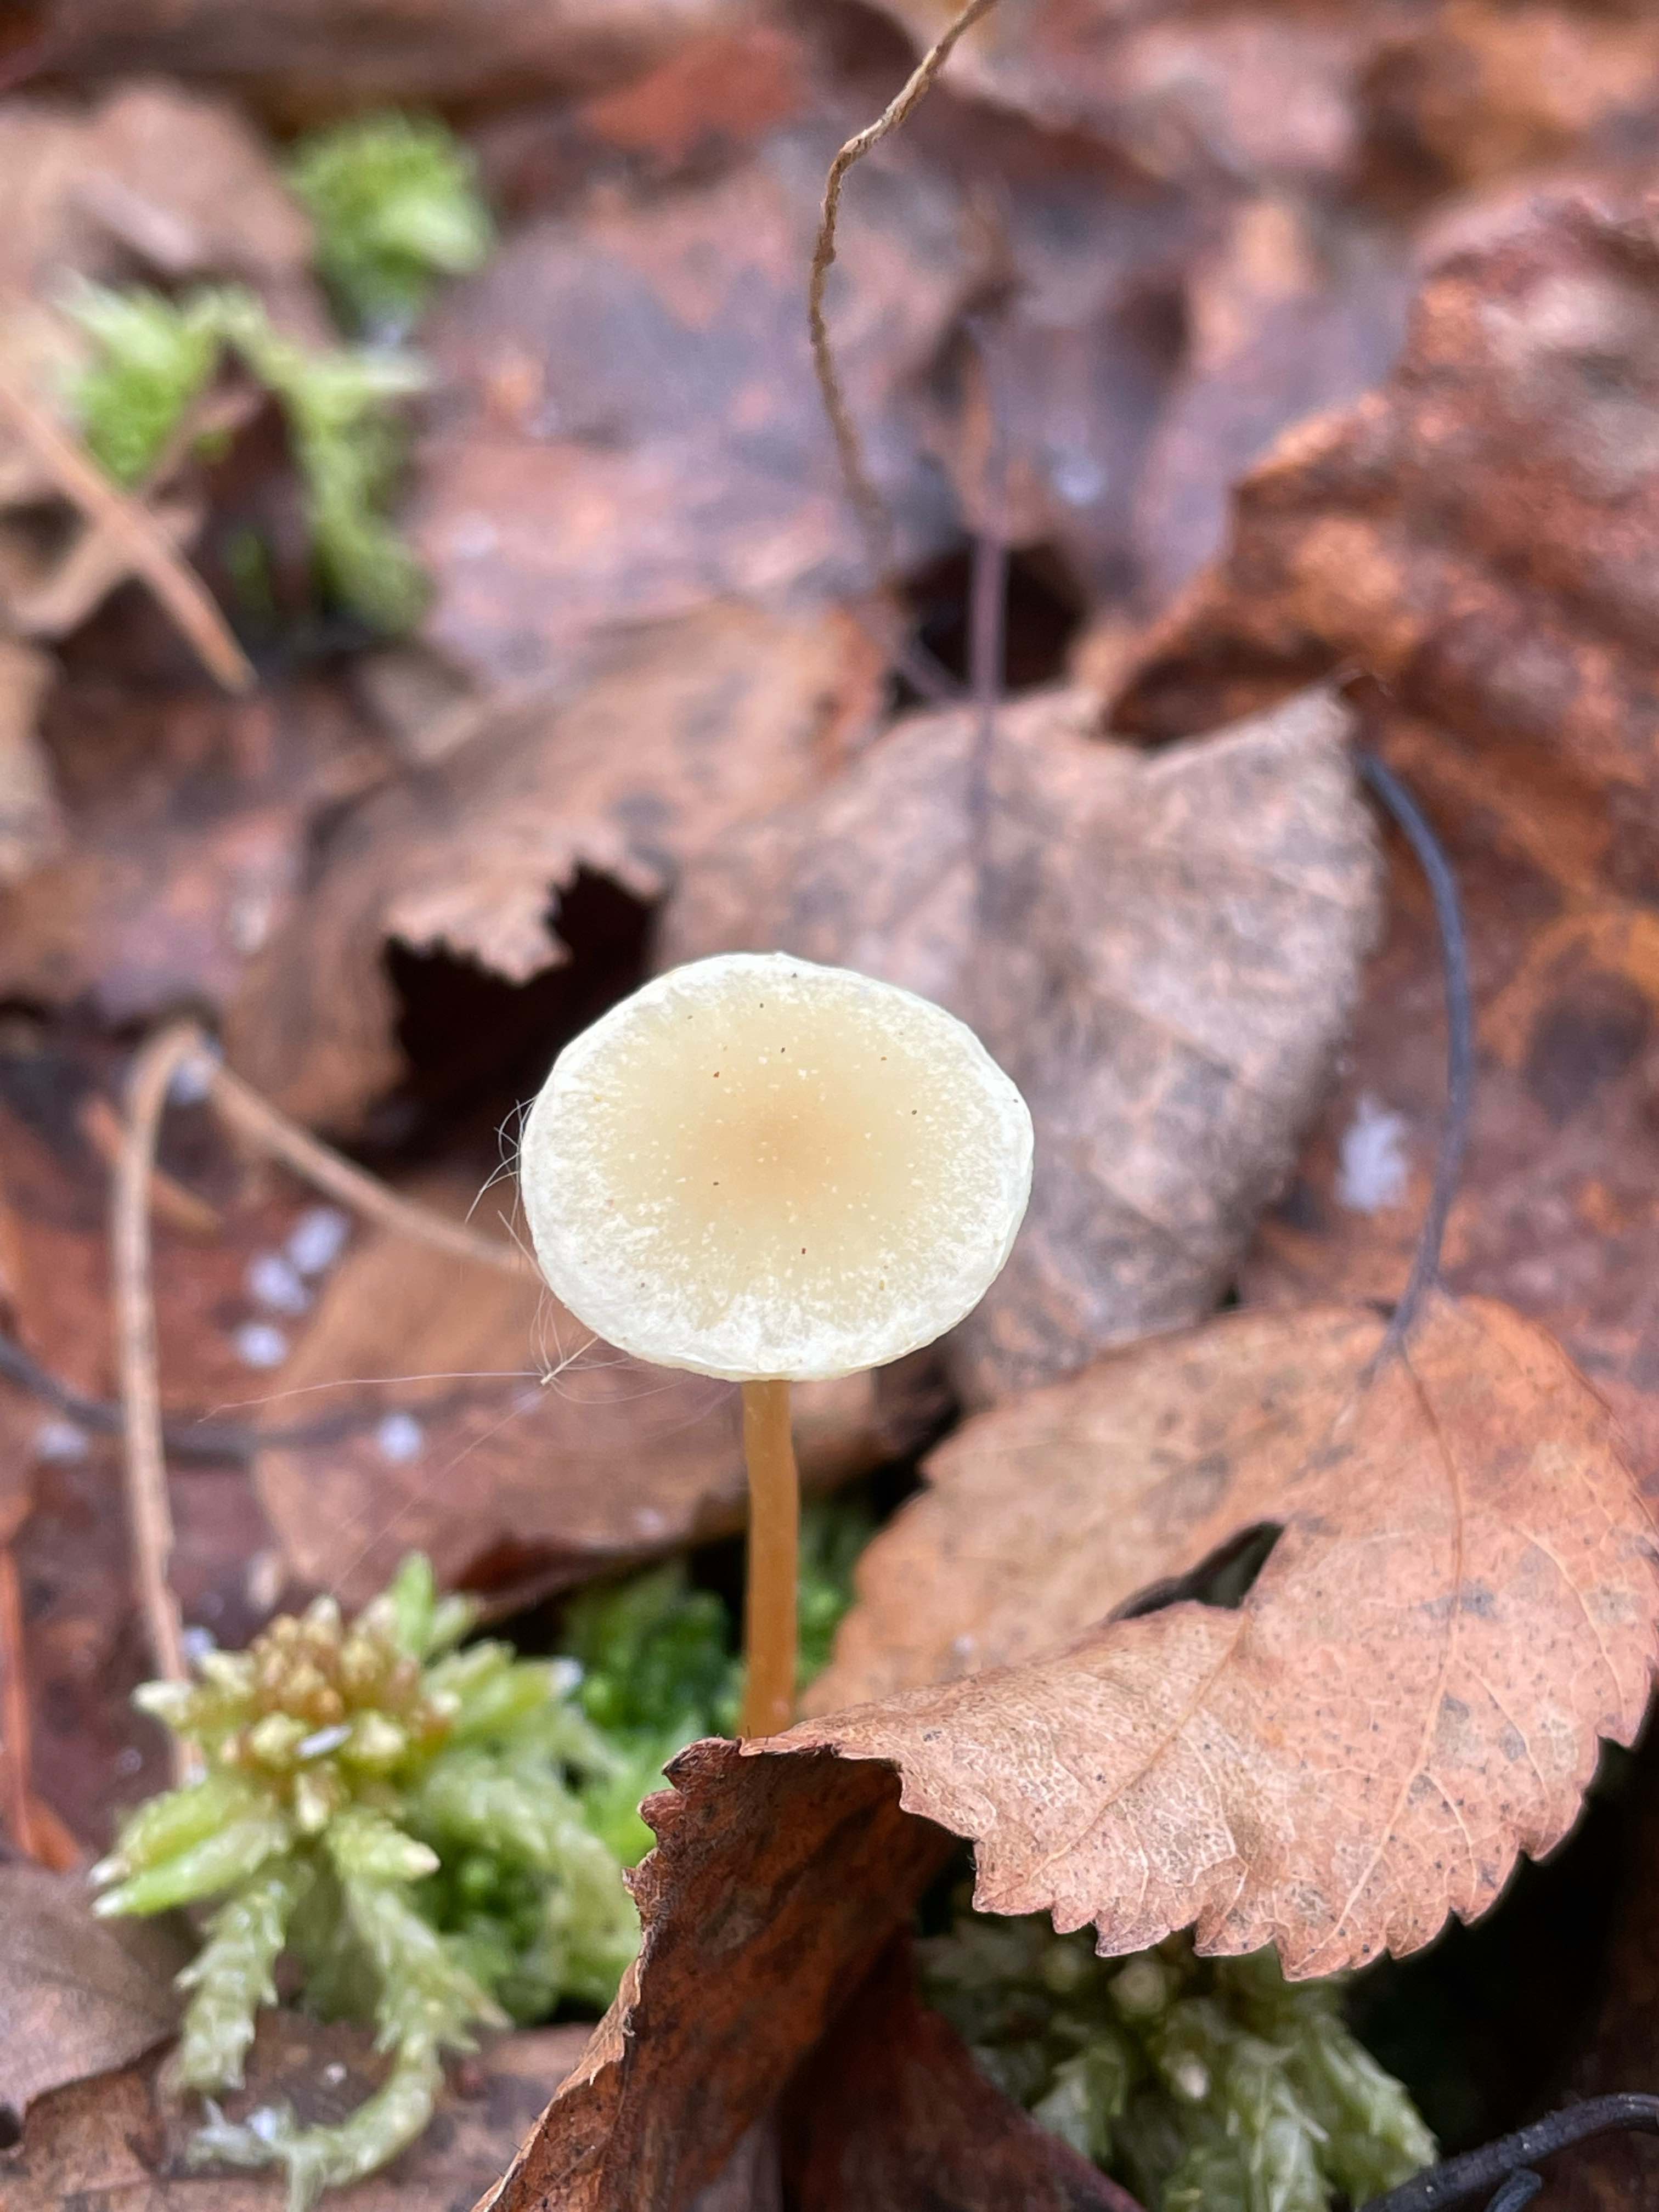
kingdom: Fungi
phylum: Basidiomycota
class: Agaricomycetes
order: Agaricales
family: Strophariaceae
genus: Hypholoma
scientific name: Hypholoma elongatum
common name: slank svovlhat
